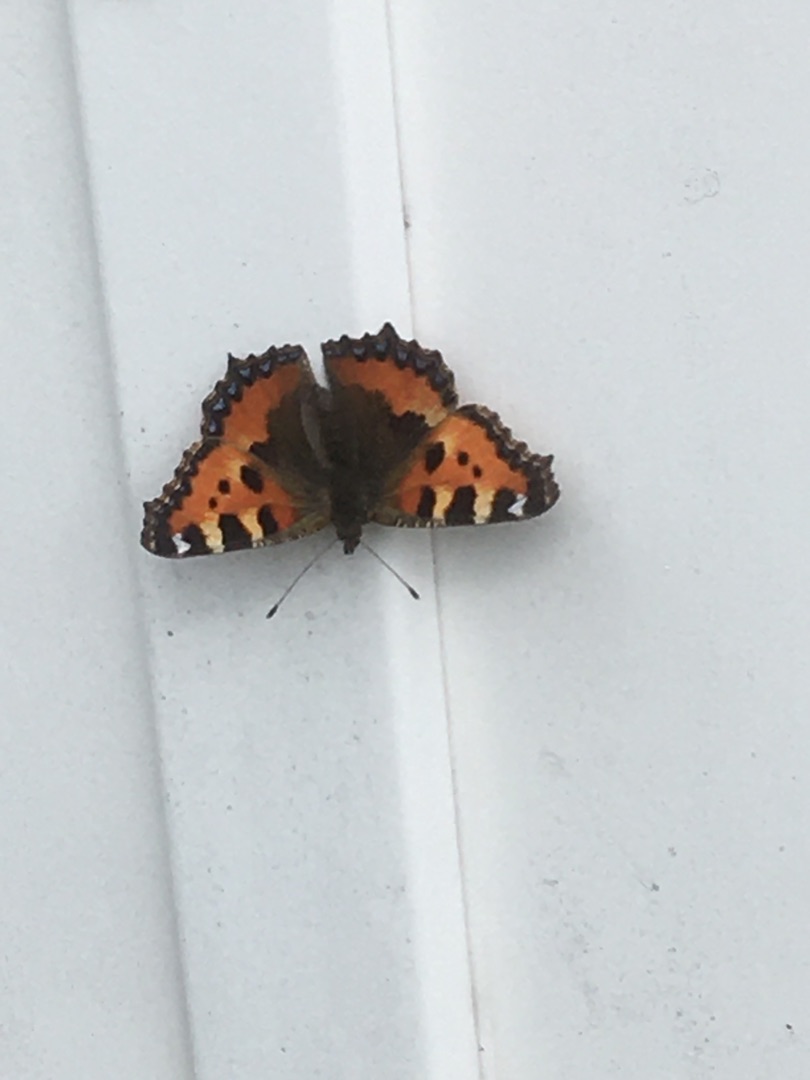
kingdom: Animalia
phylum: Arthropoda
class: Insecta
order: Lepidoptera
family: Nymphalidae
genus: Aglais
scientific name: Aglais urticae
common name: Nældens takvinge
